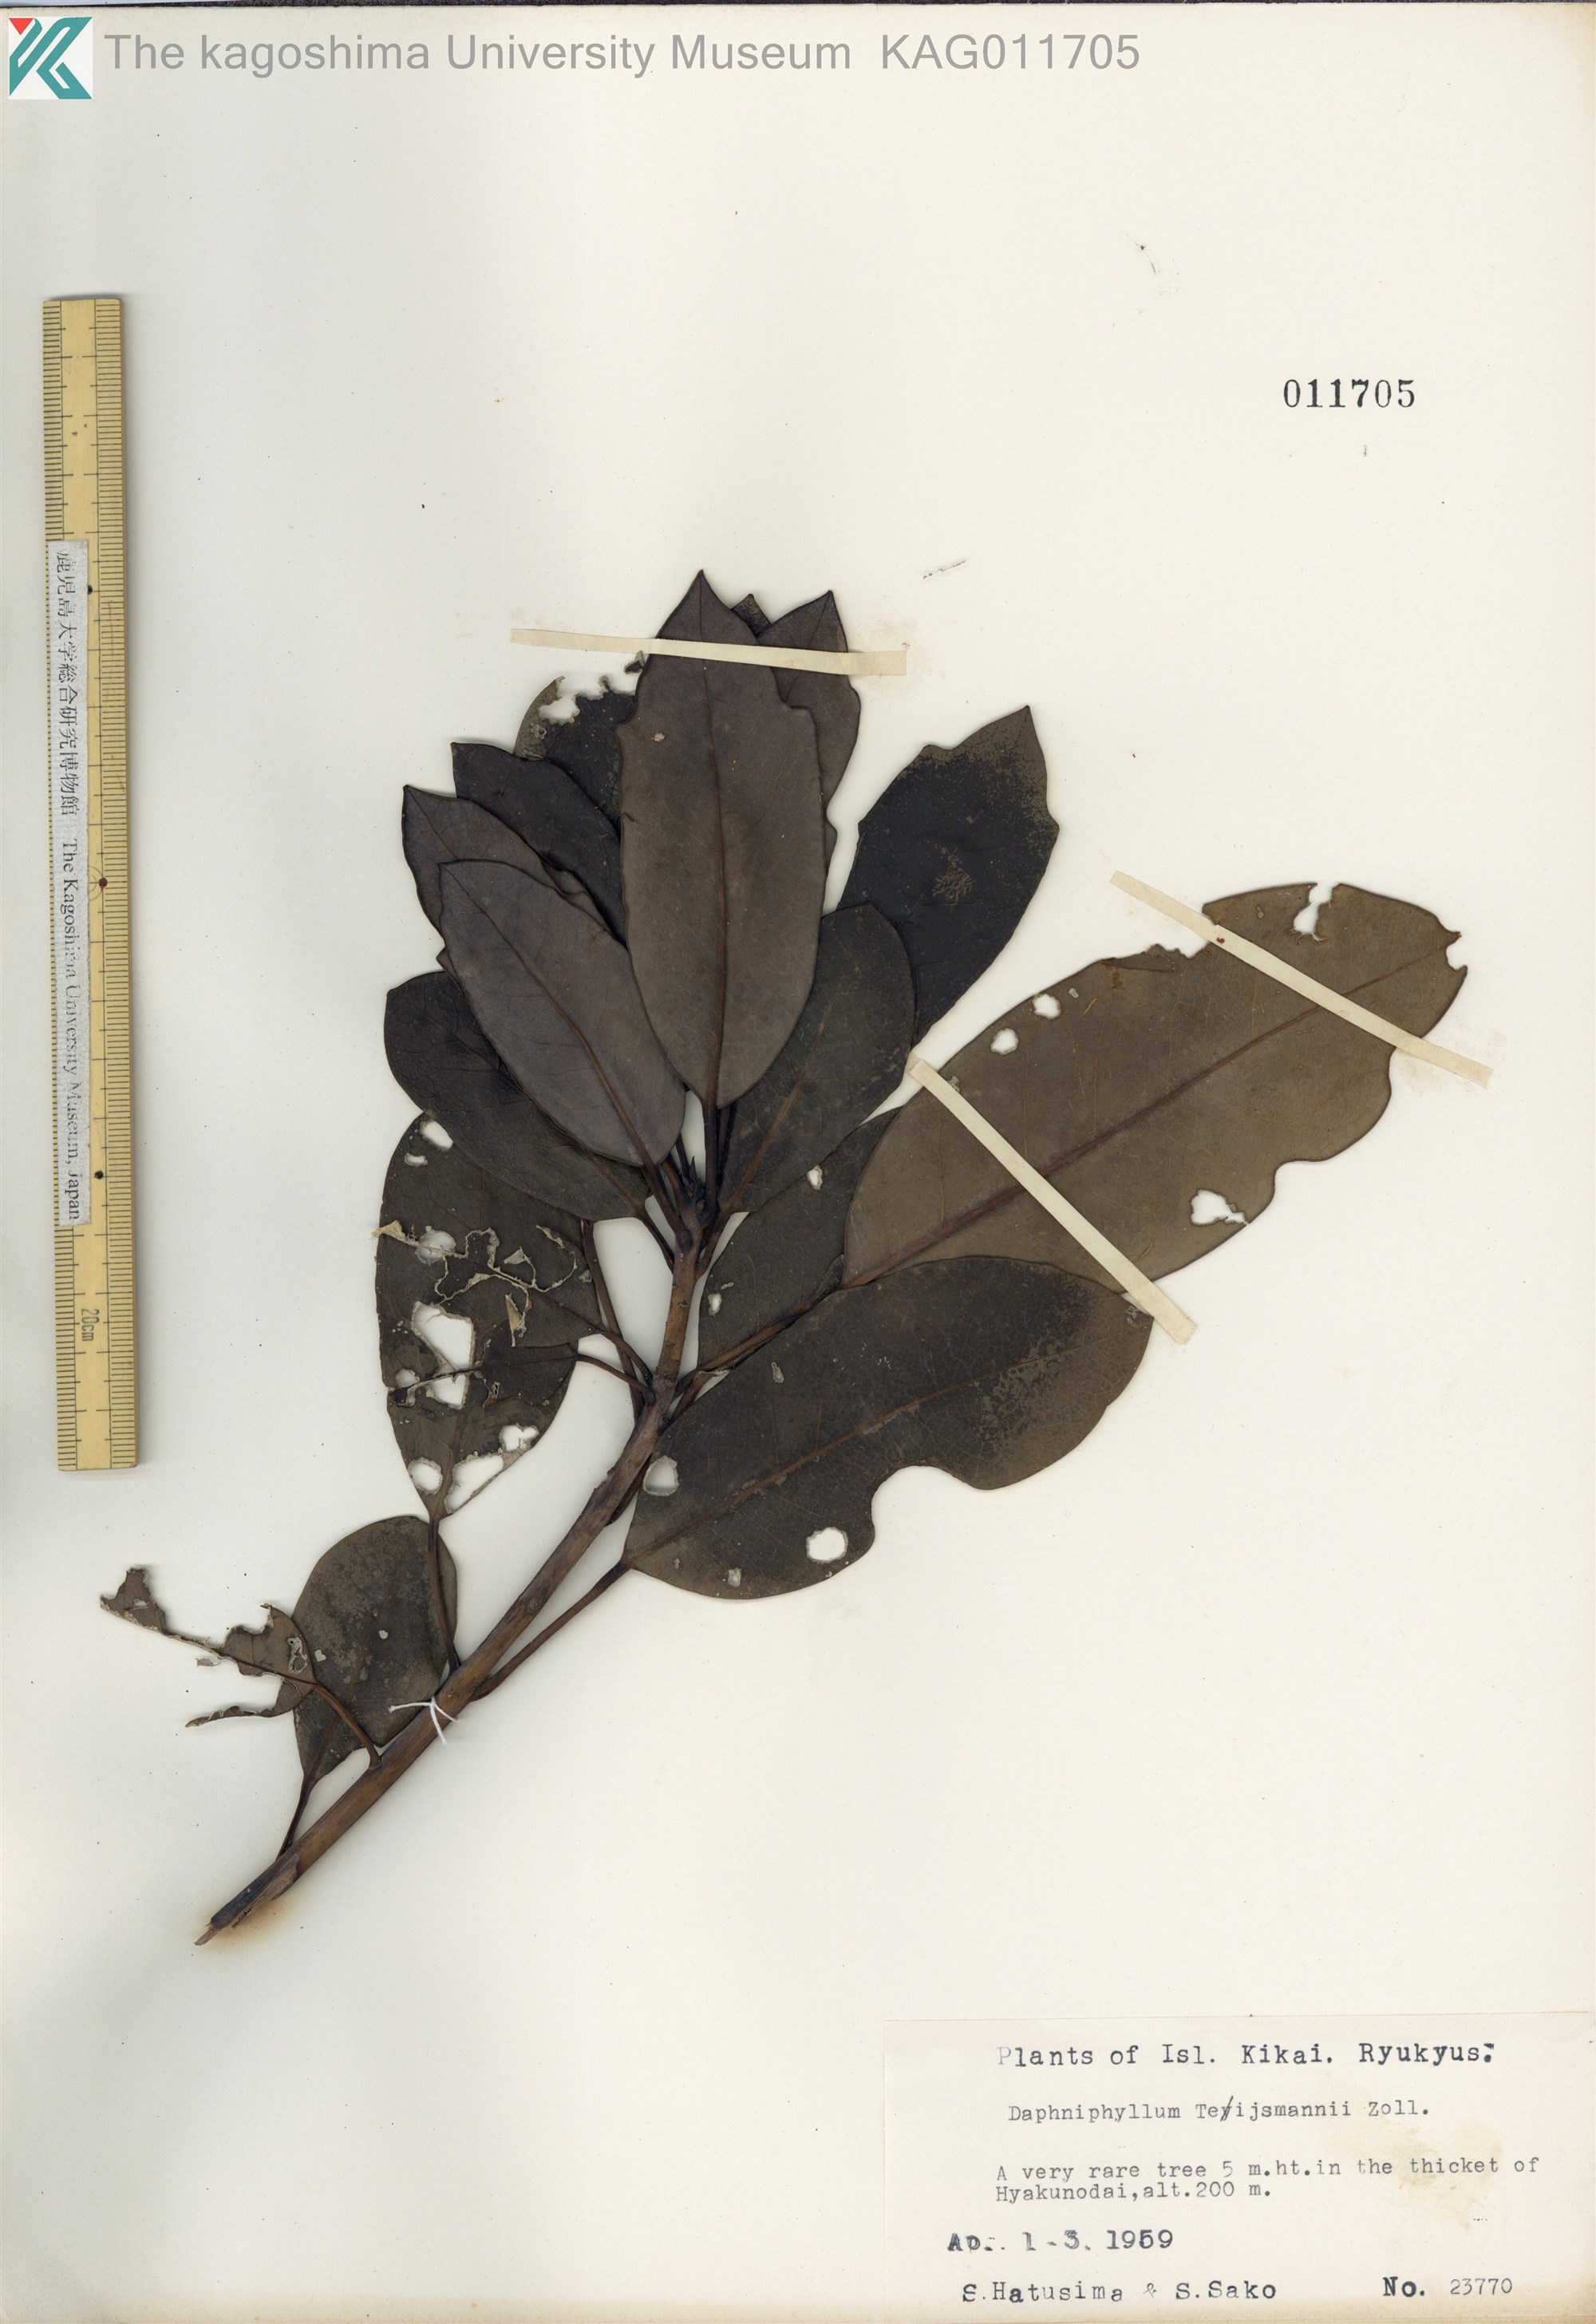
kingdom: Plantae
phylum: Tracheophyta
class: Magnoliopsida
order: Saxifragales
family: Daphniphyllaceae
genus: Daphniphyllum
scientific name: Daphniphyllum teijsmannii
